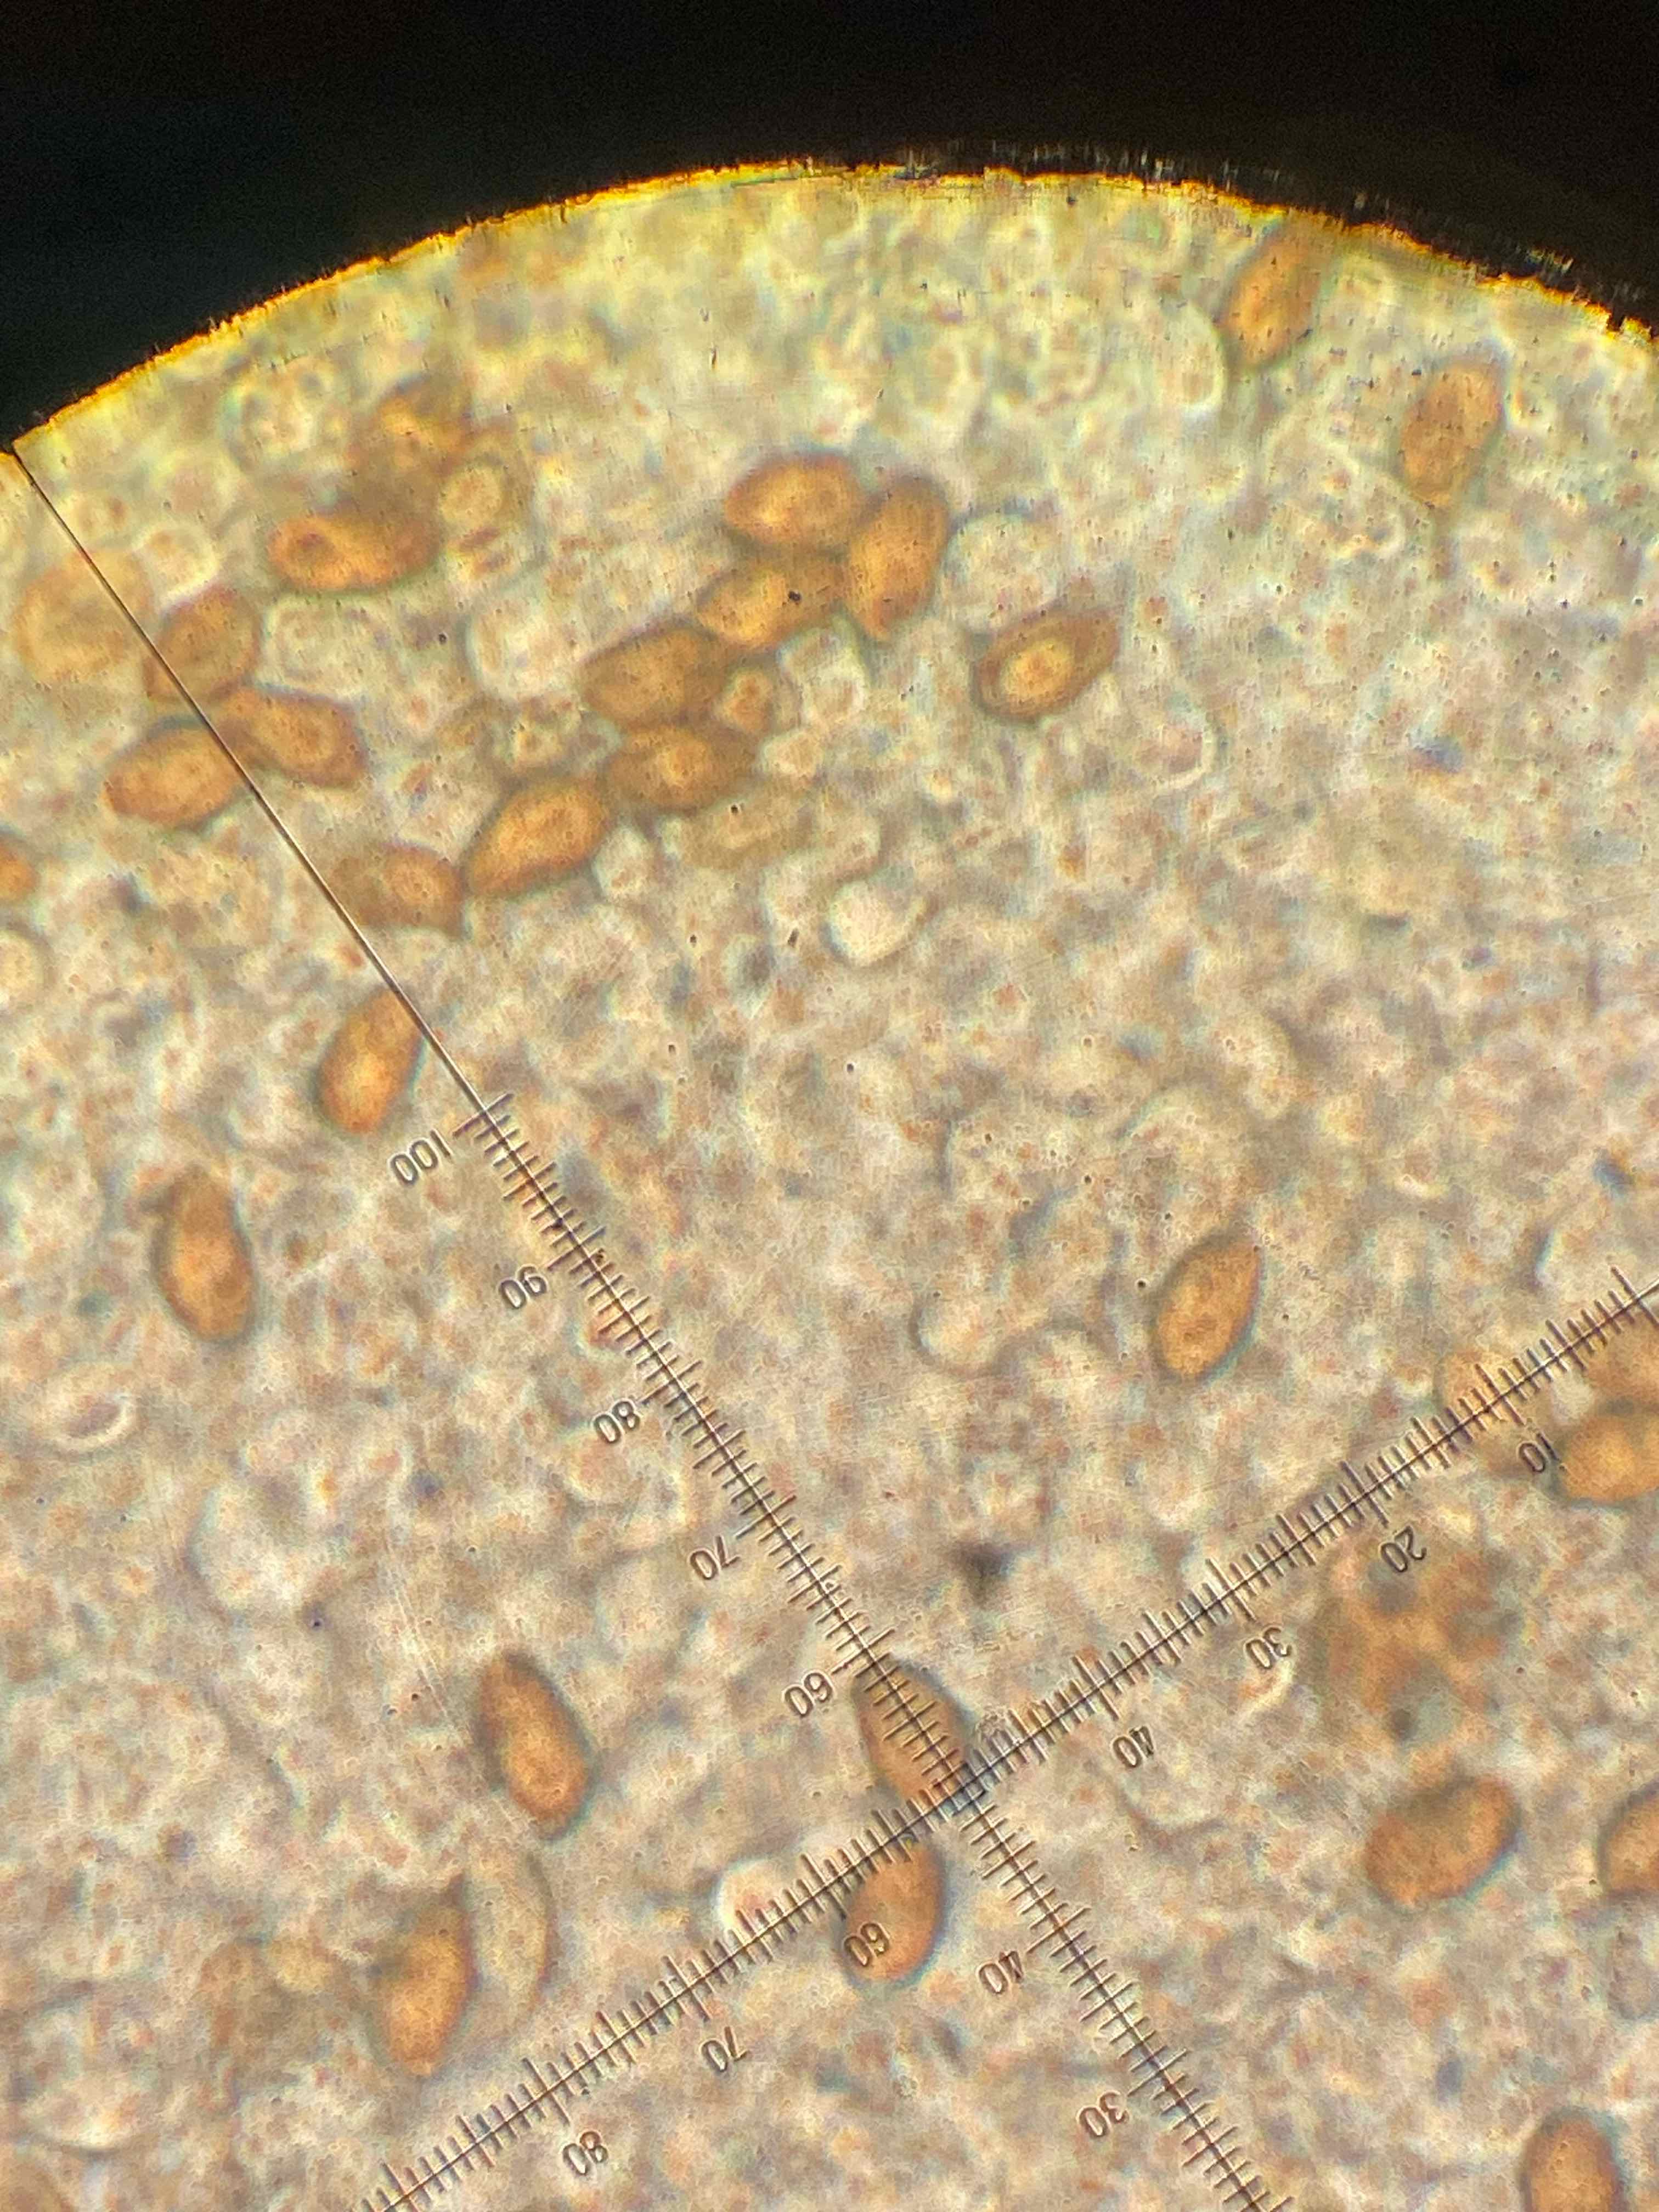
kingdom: Fungi
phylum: Basidiomycota
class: Agaricomycetes
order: Agaricales
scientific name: Agaricales
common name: champignonordenen
